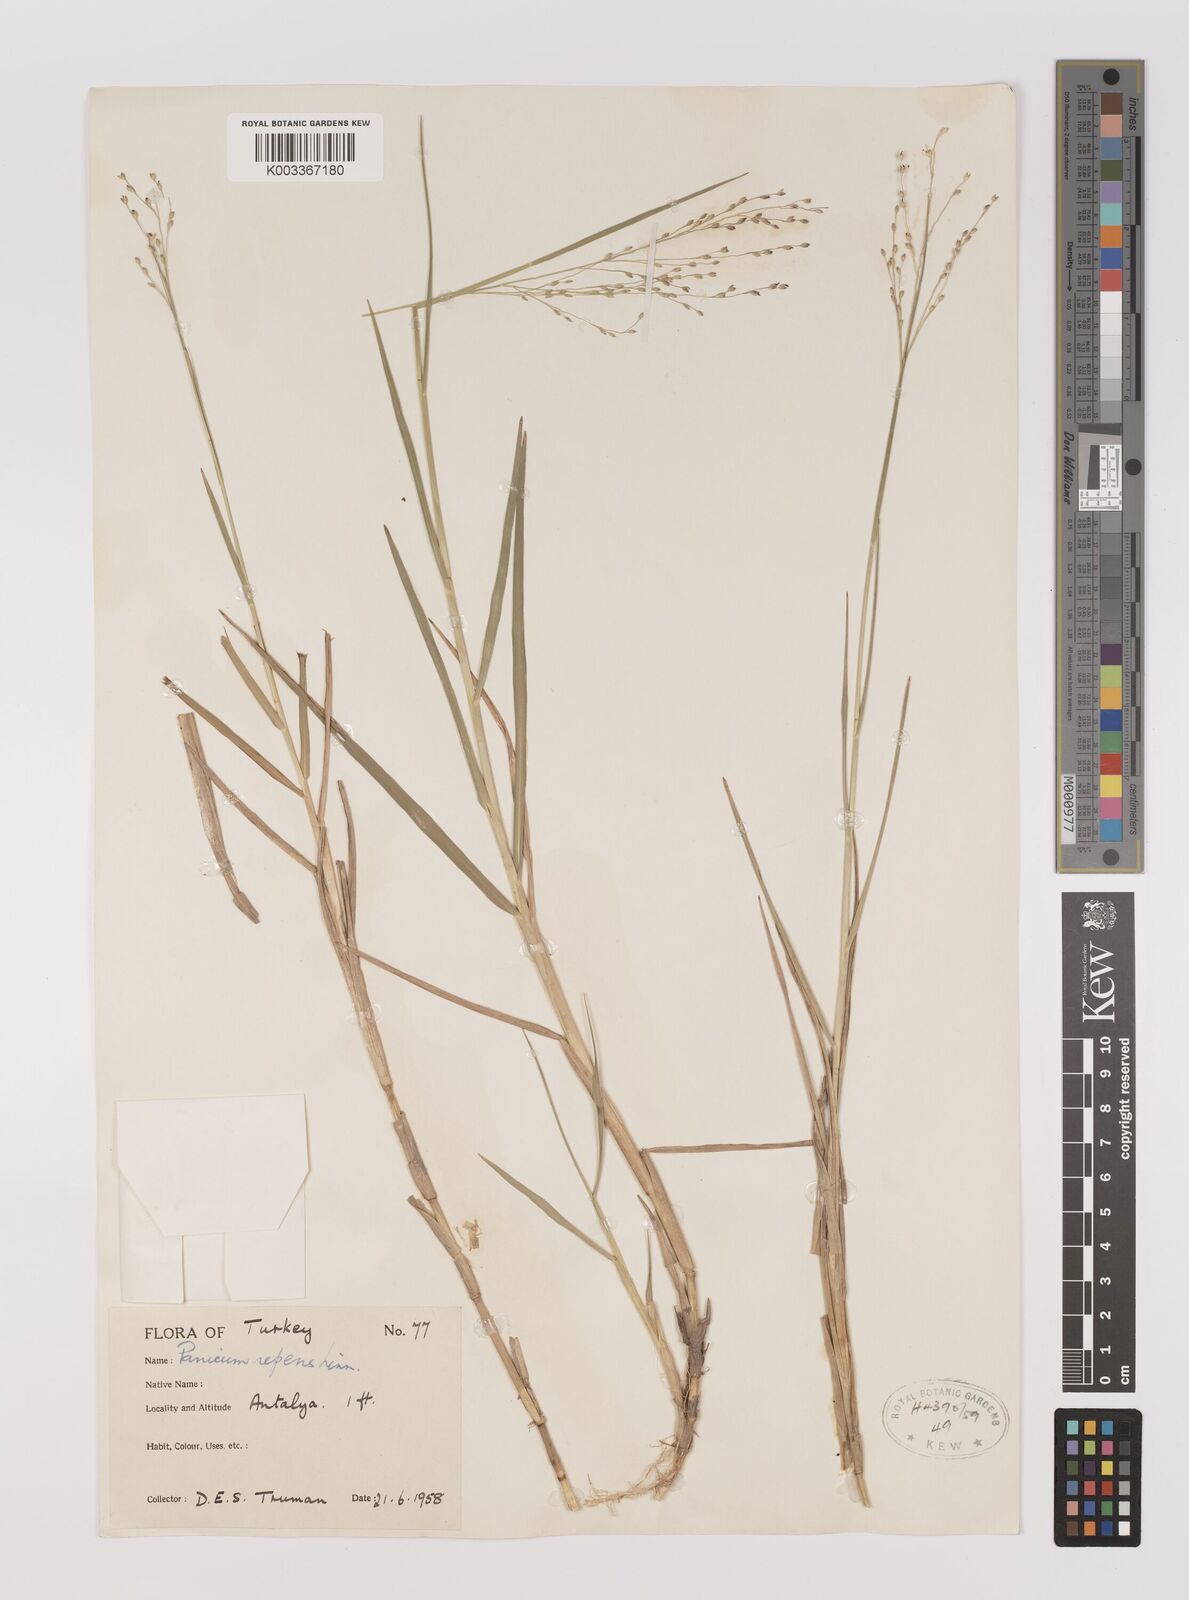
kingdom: Plantae
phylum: Tracheophyta
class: Liliopsida
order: Poales
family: Poaceae
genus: Panicum
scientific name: Panicum repens
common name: Torpedo grass
